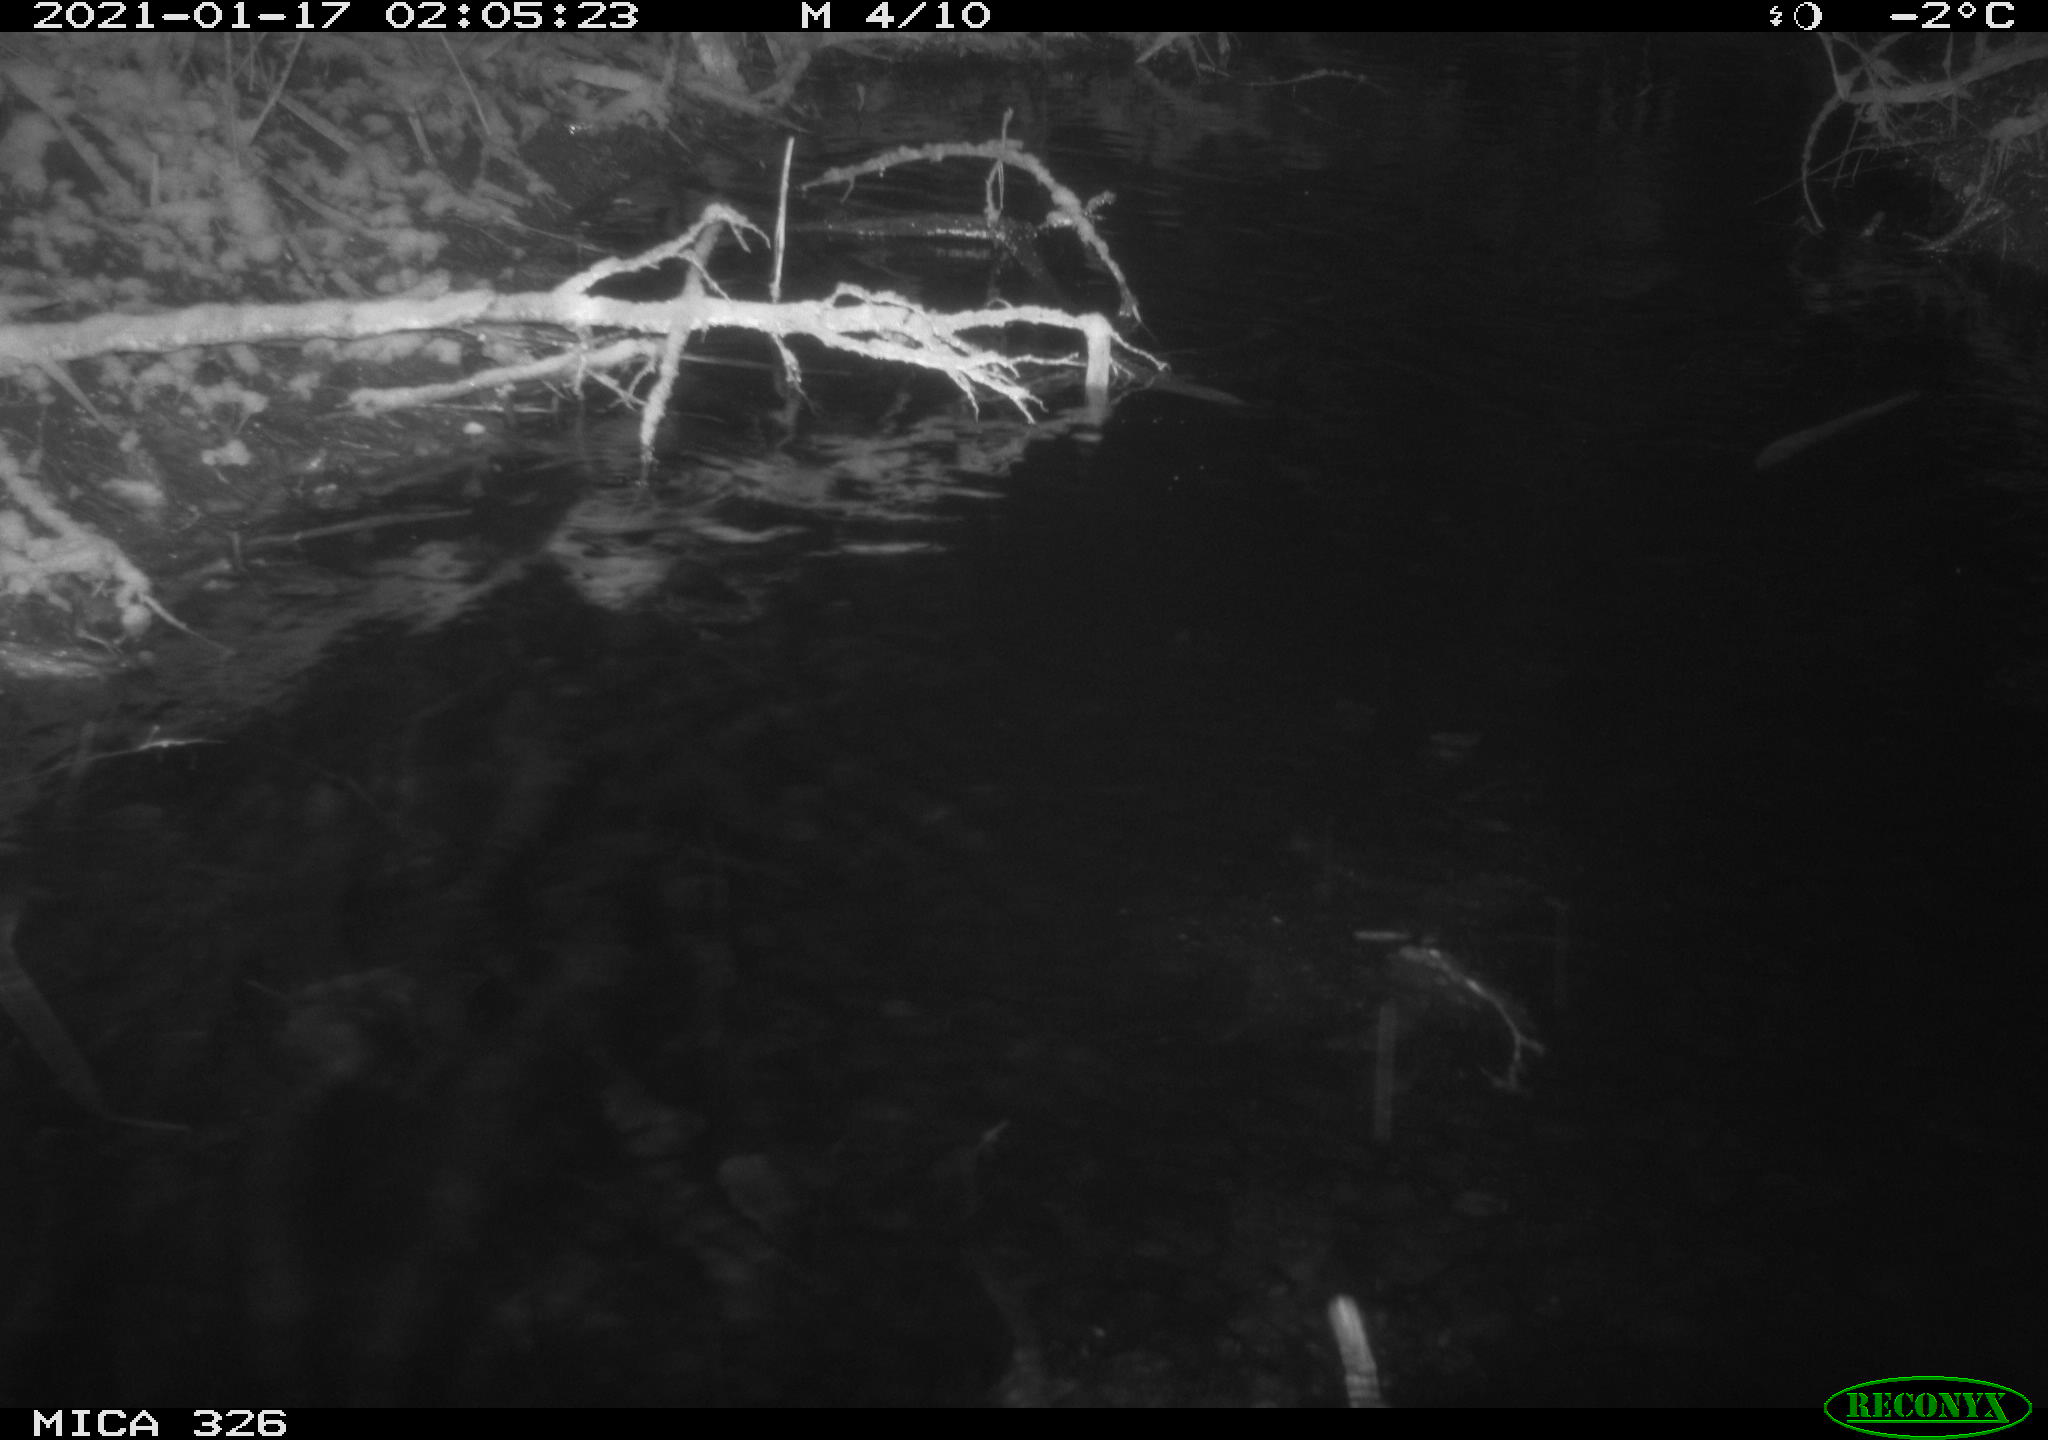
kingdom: Animalia
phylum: Chordata
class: Mammalia
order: Rodentia
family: Myocastoridae
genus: Myocastor
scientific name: Myocastor coypus
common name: Coypu
